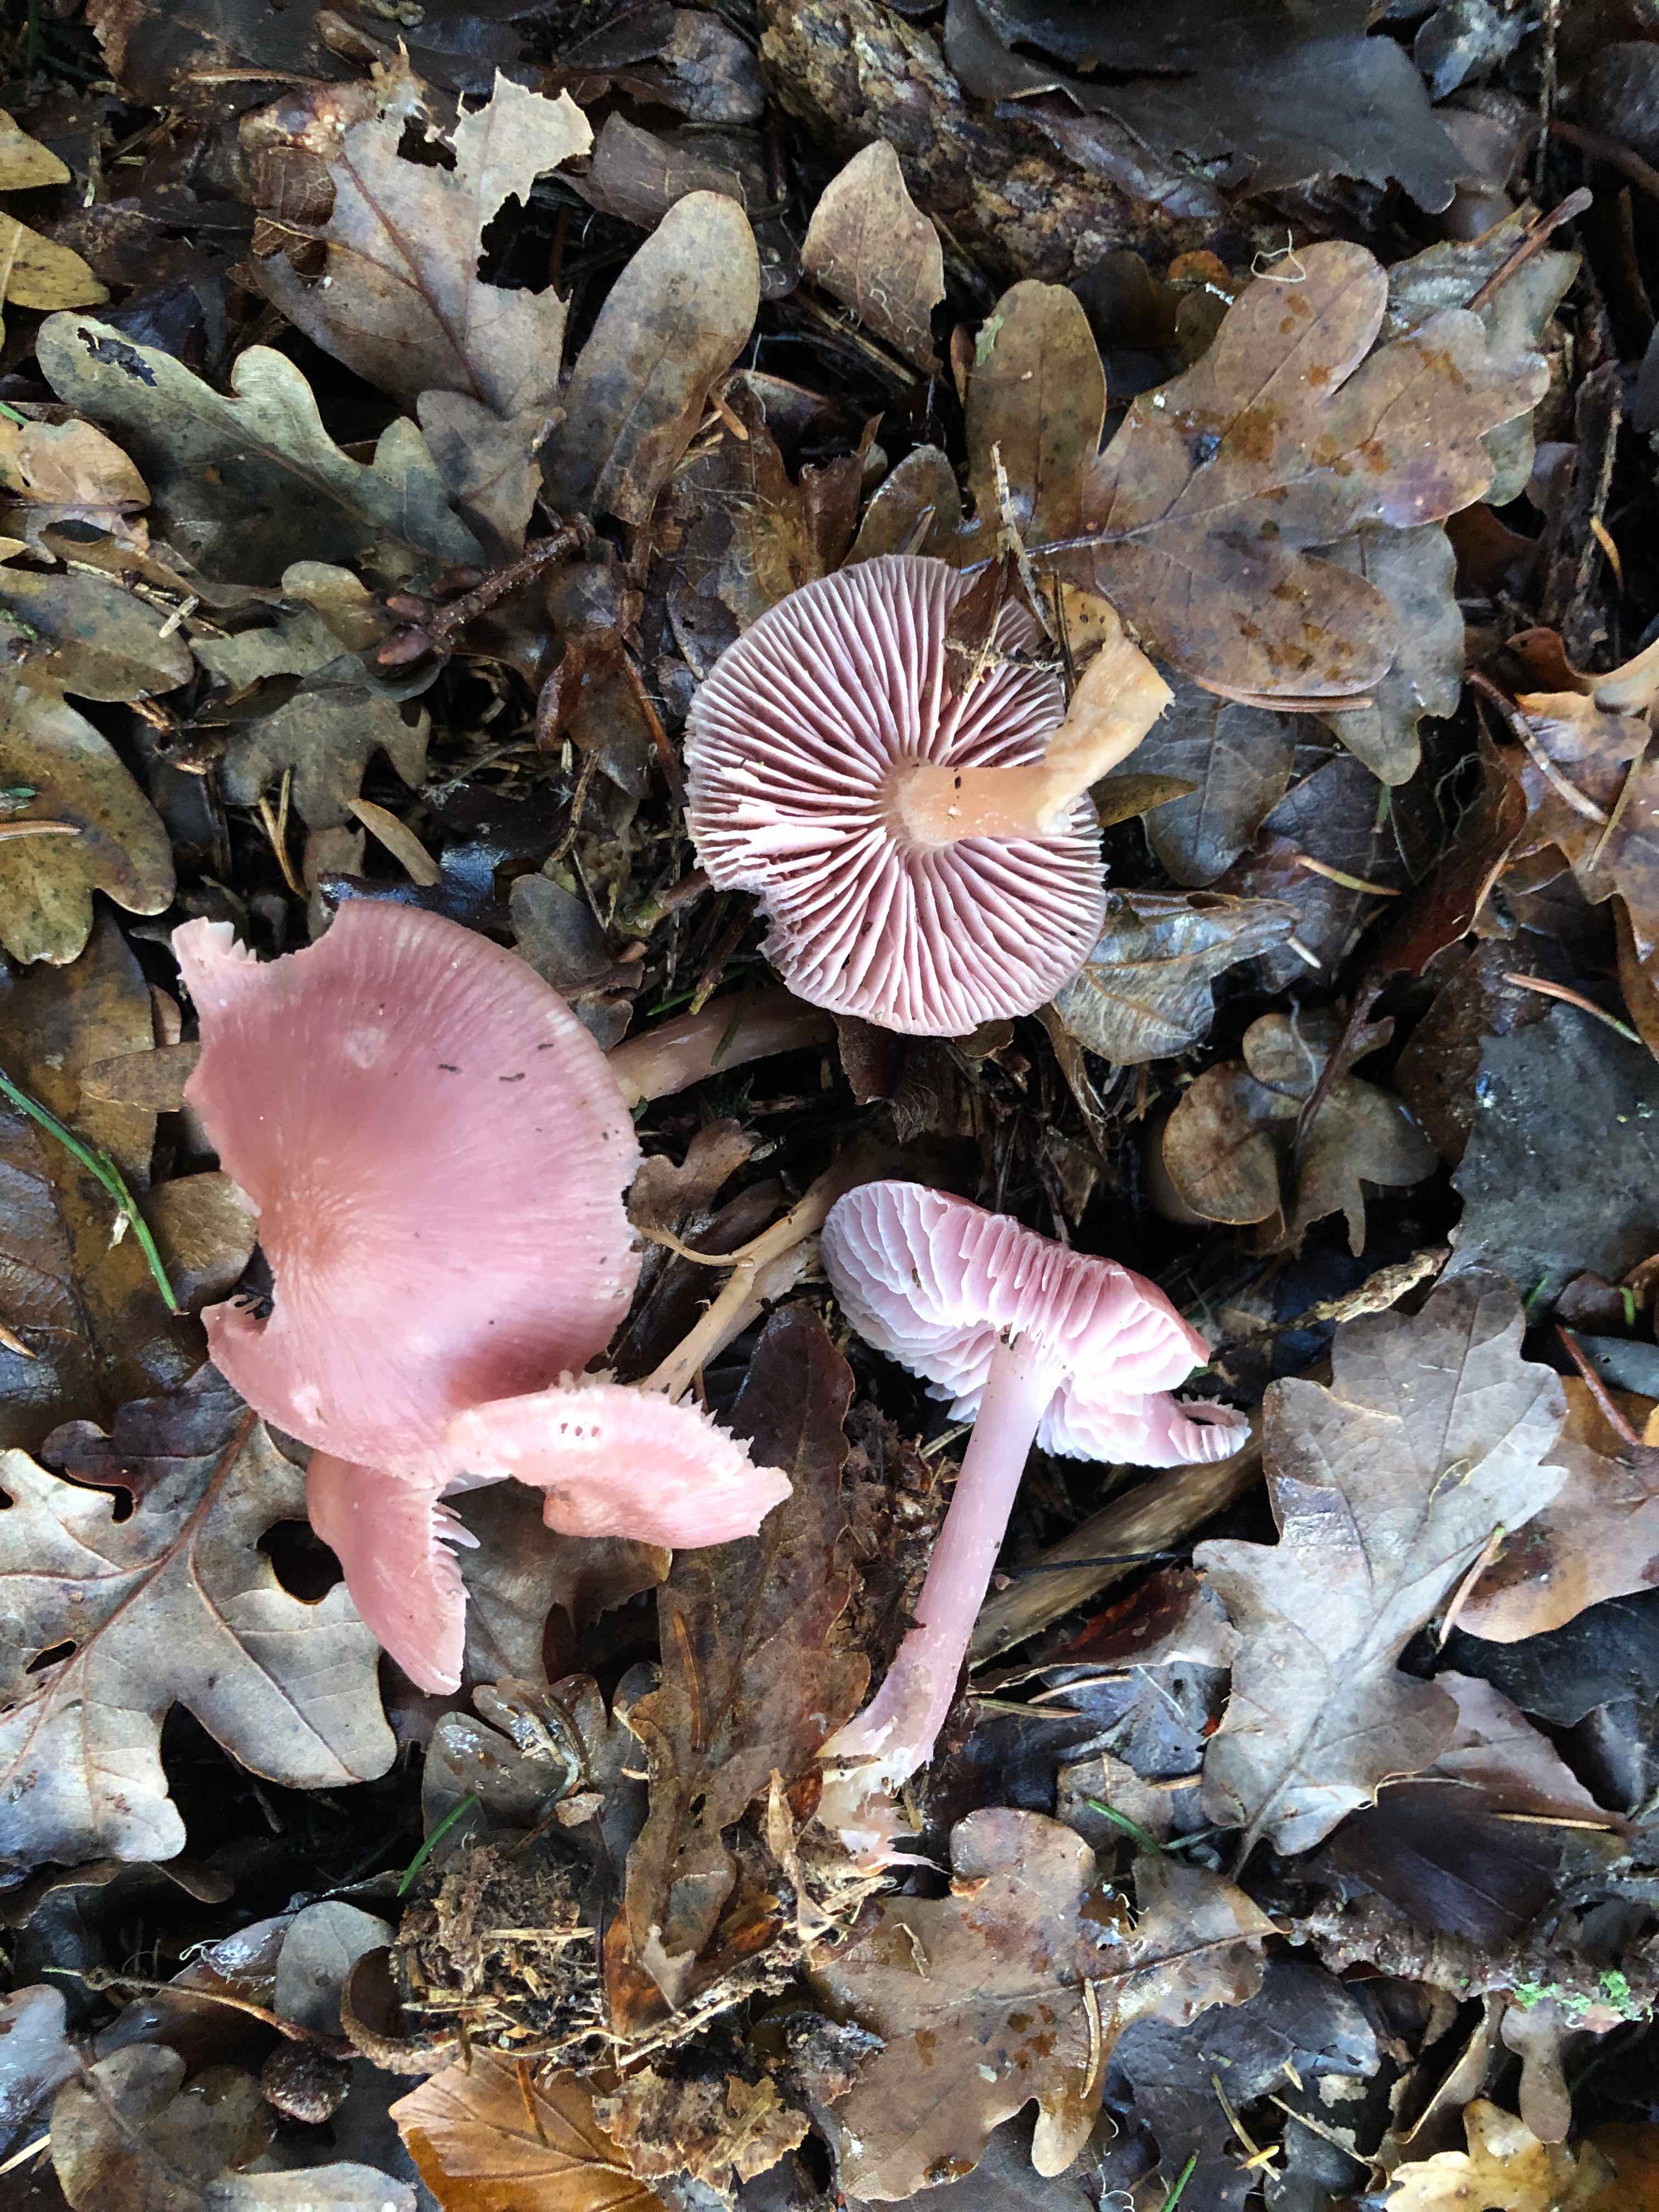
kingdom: Fungi
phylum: Basidiomycota
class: Agaricomycetes
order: Agaricales
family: Mycenaceae
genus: Mycena
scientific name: Mycena rosea
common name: rosa huesvamp
